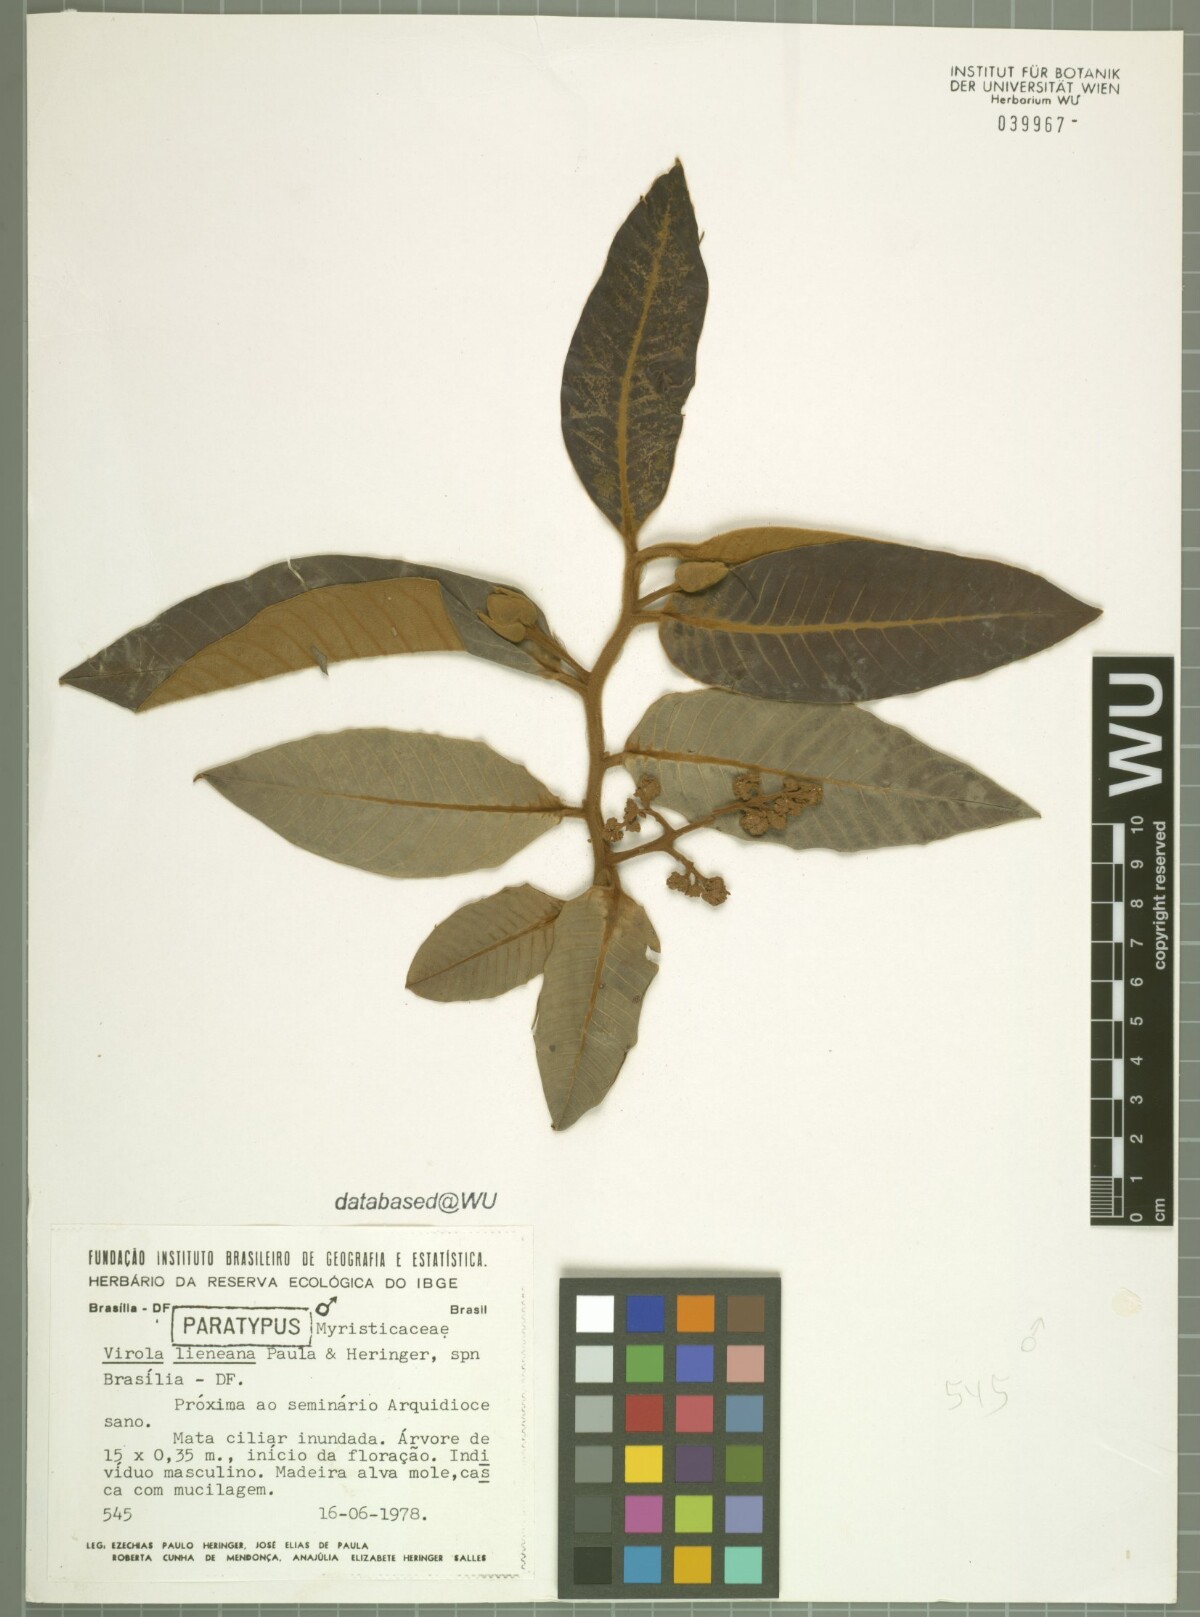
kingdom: Plantae
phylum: Tracheophyta
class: Magnoliopsida
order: Magnoliales
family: Myristicaceae
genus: Virola
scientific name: Virola lieneana
